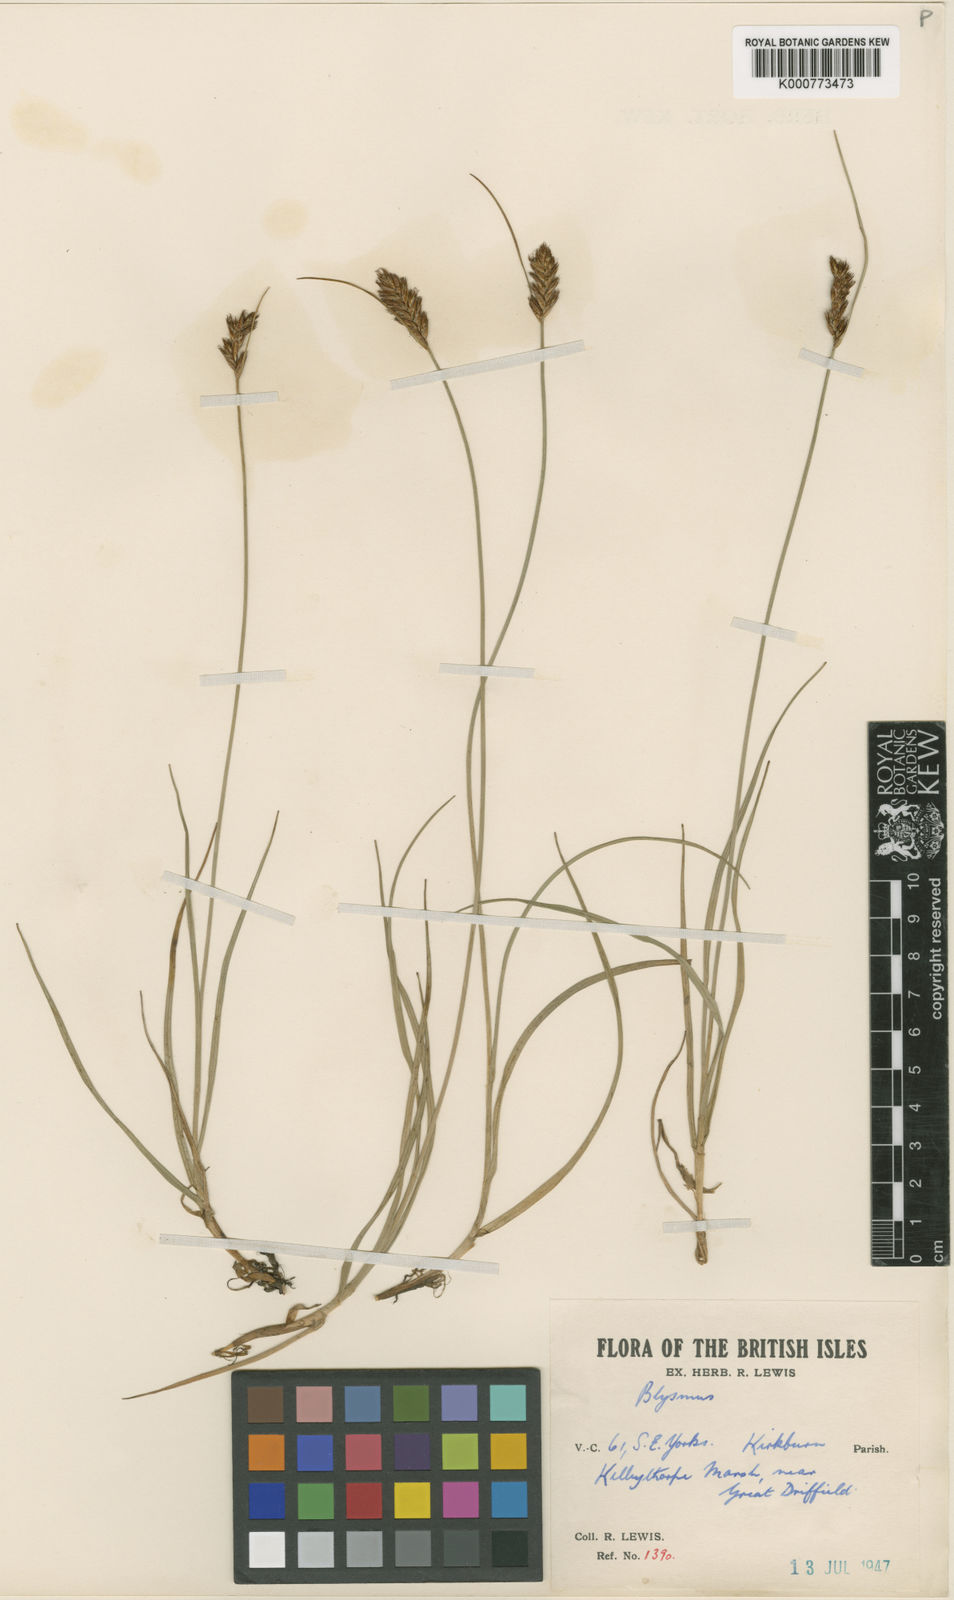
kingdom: Plantae
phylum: Tracheophyta
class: Liliopsida
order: Poales
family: Cyperaceae
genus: Blysmus
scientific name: Blysmus compressus
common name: Flat-sedge
